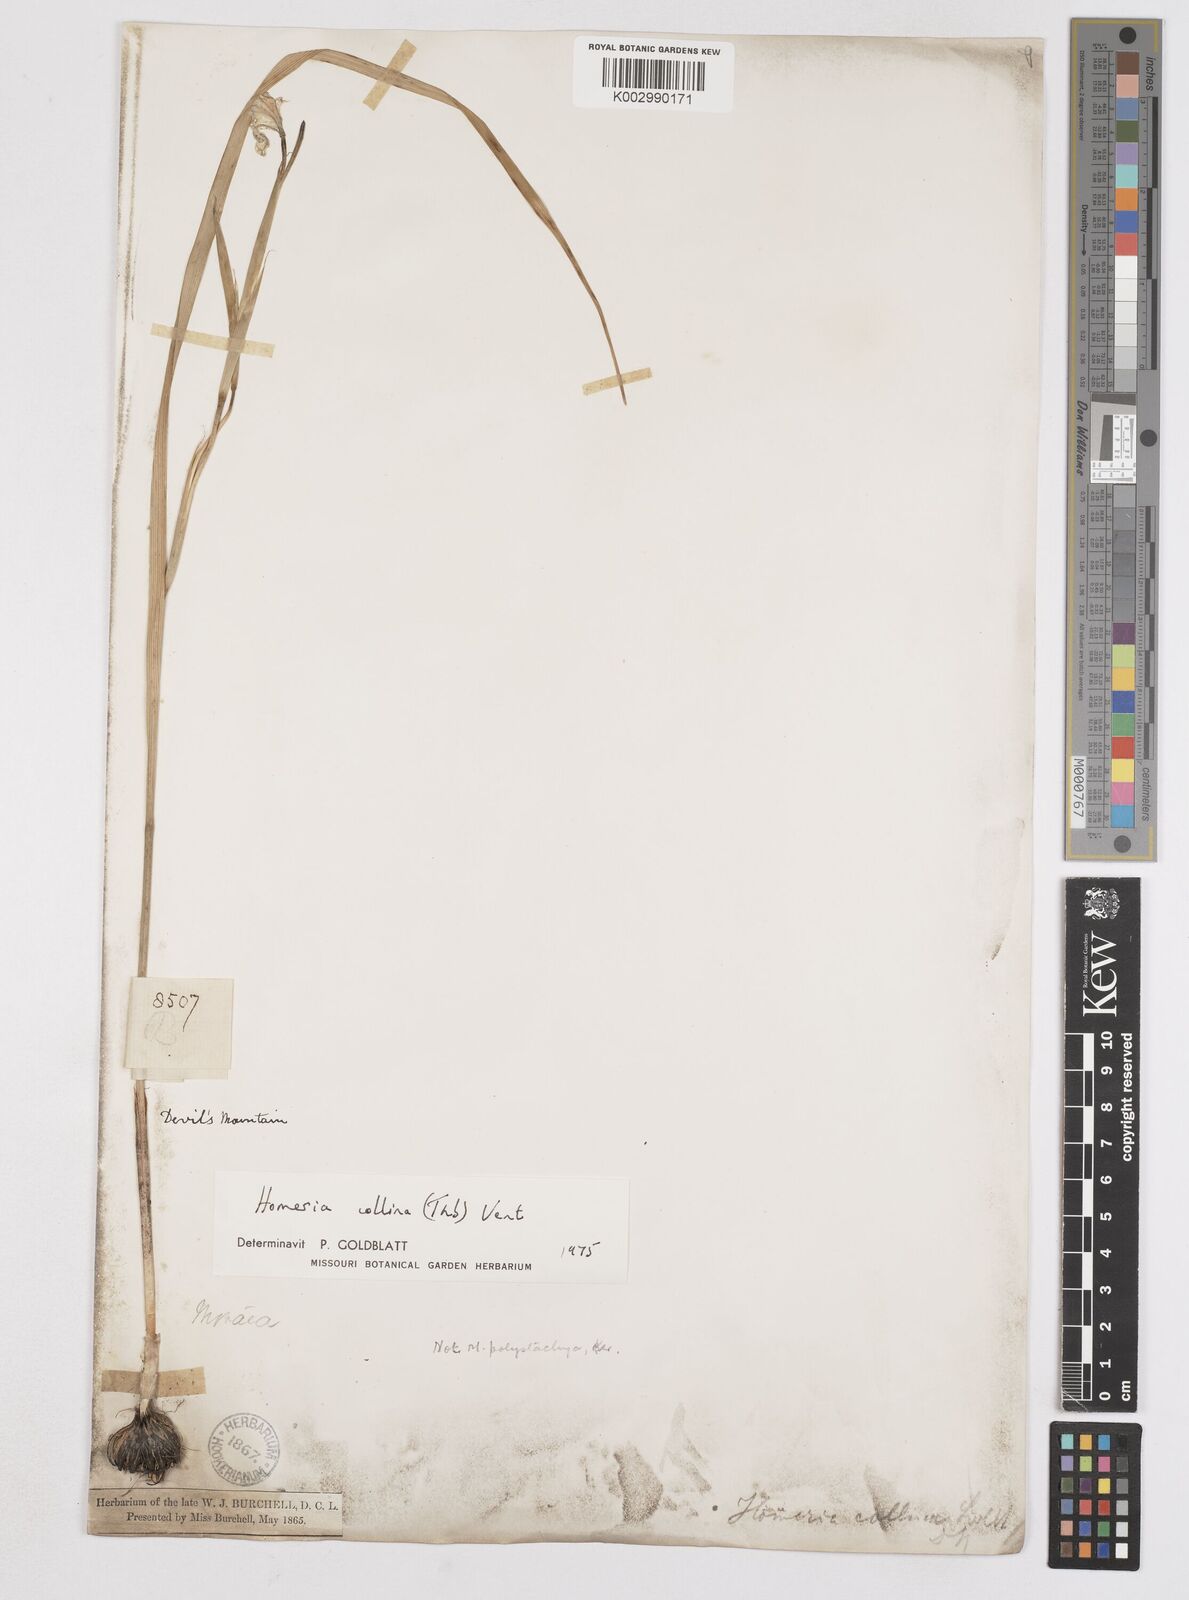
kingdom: Plantae
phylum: Tracheophyta
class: Liliopsida
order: Asparagales
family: Iridaceae
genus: Moraea
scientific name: Moraea collina
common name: Cape-tulip
